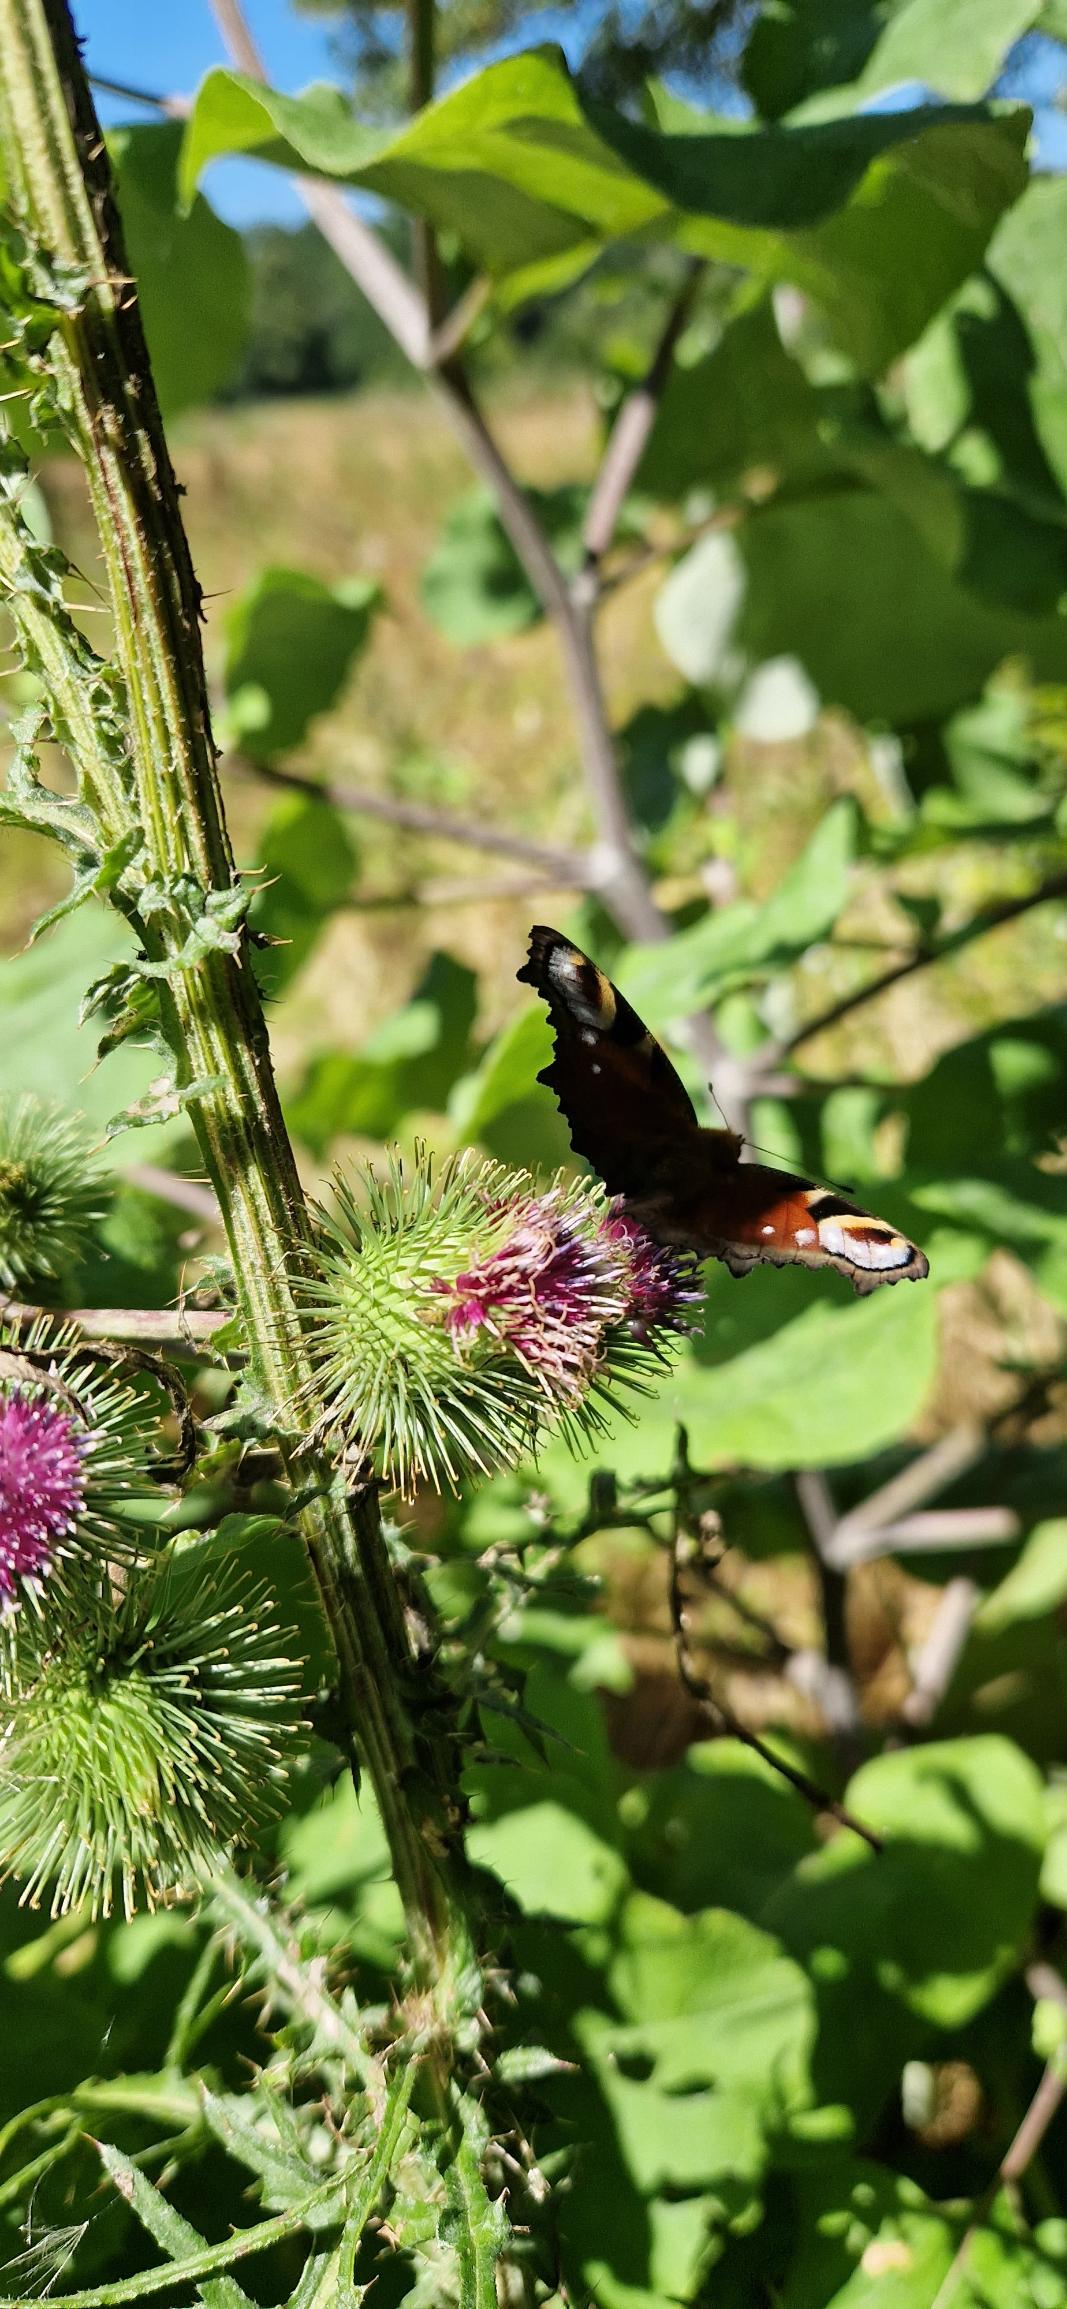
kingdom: Animalia
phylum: Arthropoda
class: Insecta
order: Lepidoptera
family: Nymphalidae
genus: Aglais
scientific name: Aglais io
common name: Dagpåfugleøje
